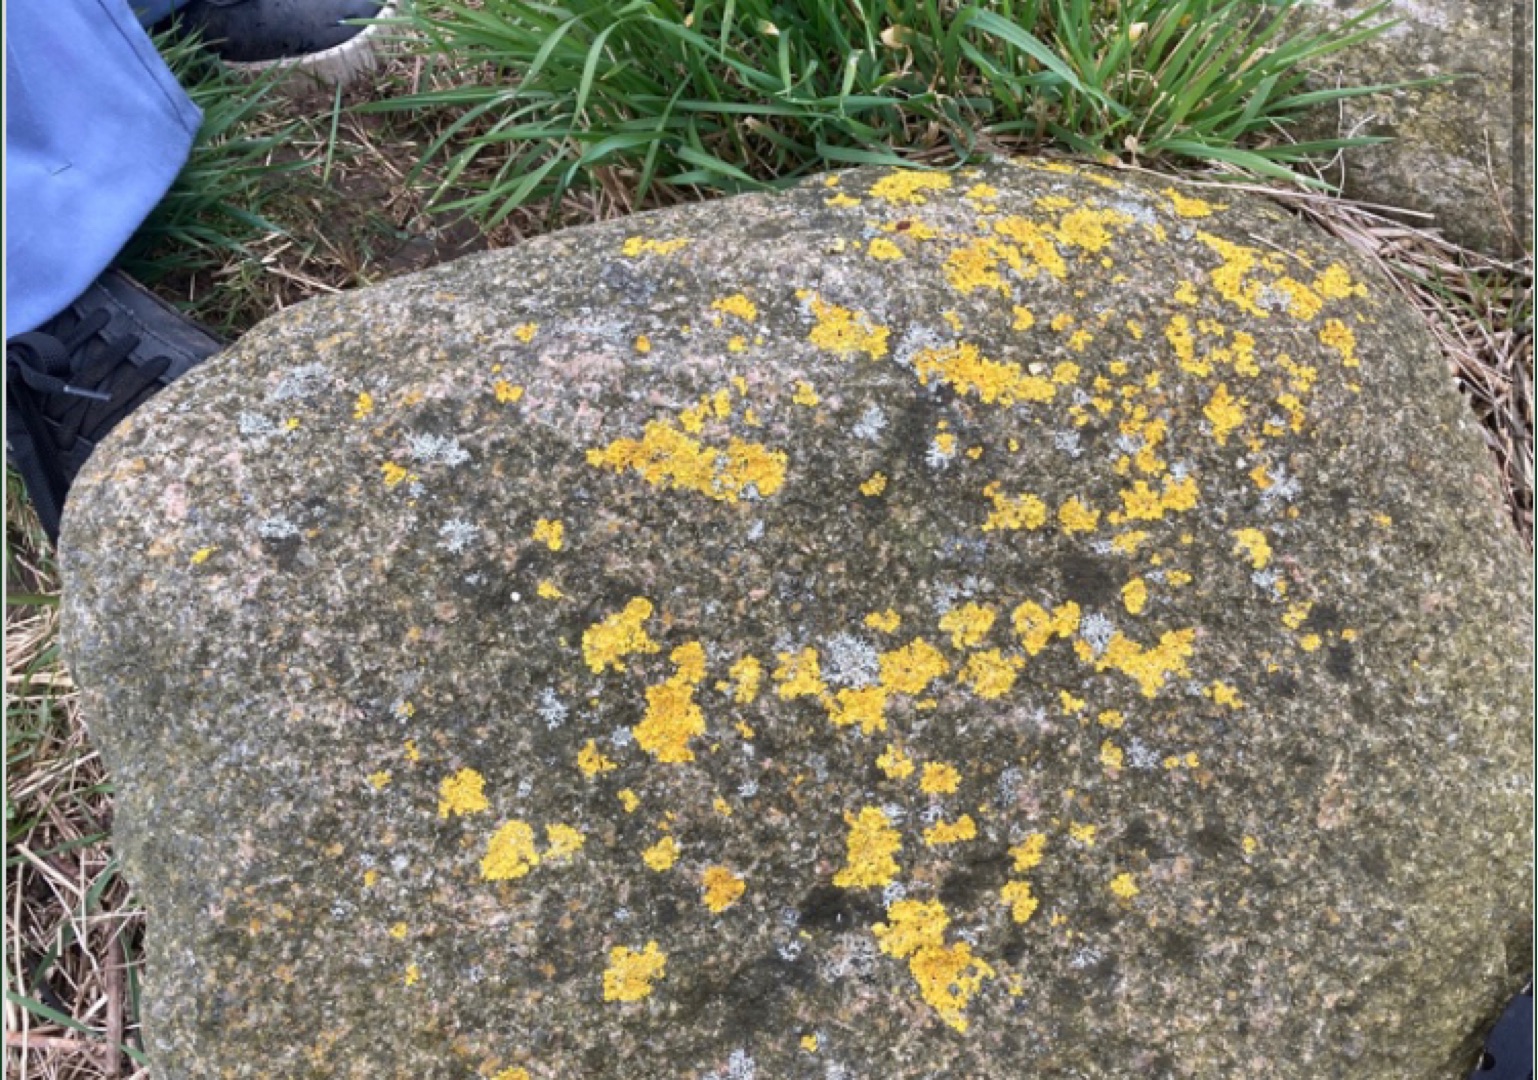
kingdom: Fungi
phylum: Ascomycota
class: Lecanoromycetes
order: Teloschistales
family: Teloschistaceae
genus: Xanthoria
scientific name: Xanthoria parietina
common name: Almindelig væggelav
